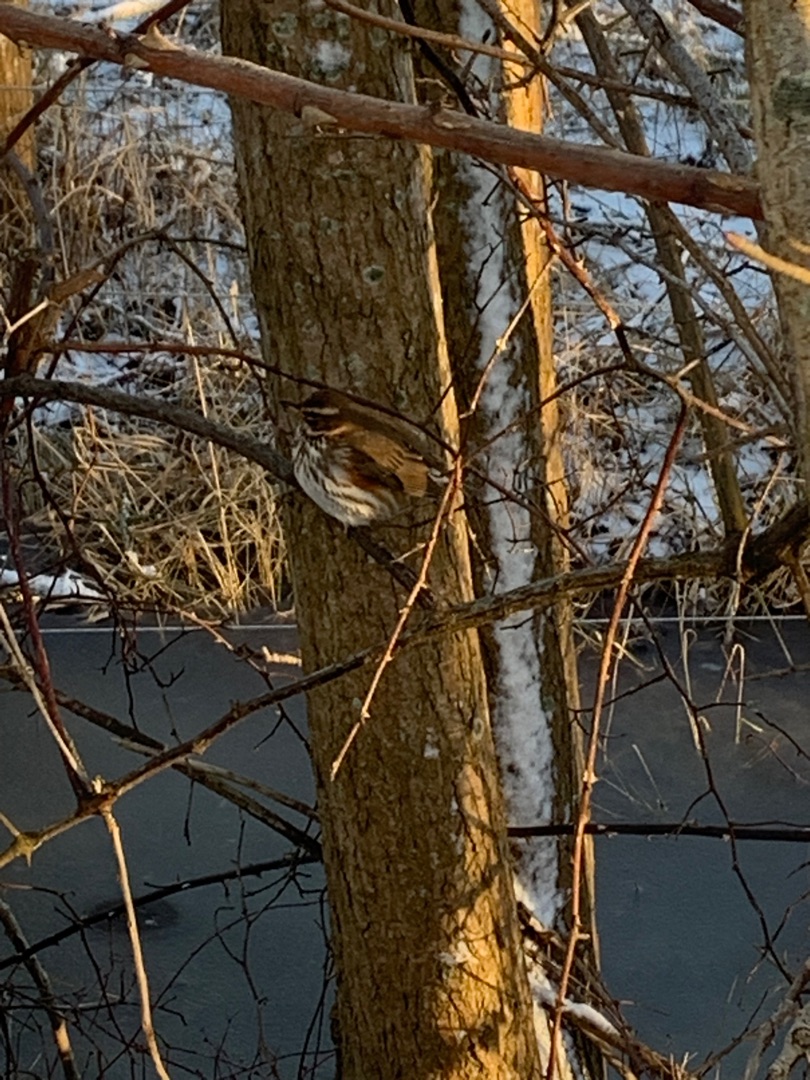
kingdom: Animalia
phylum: Chordata
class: Aves
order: Passeriformes
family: Turdidae
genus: Turdus
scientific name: Turdus iliacus
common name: Vindrossel
